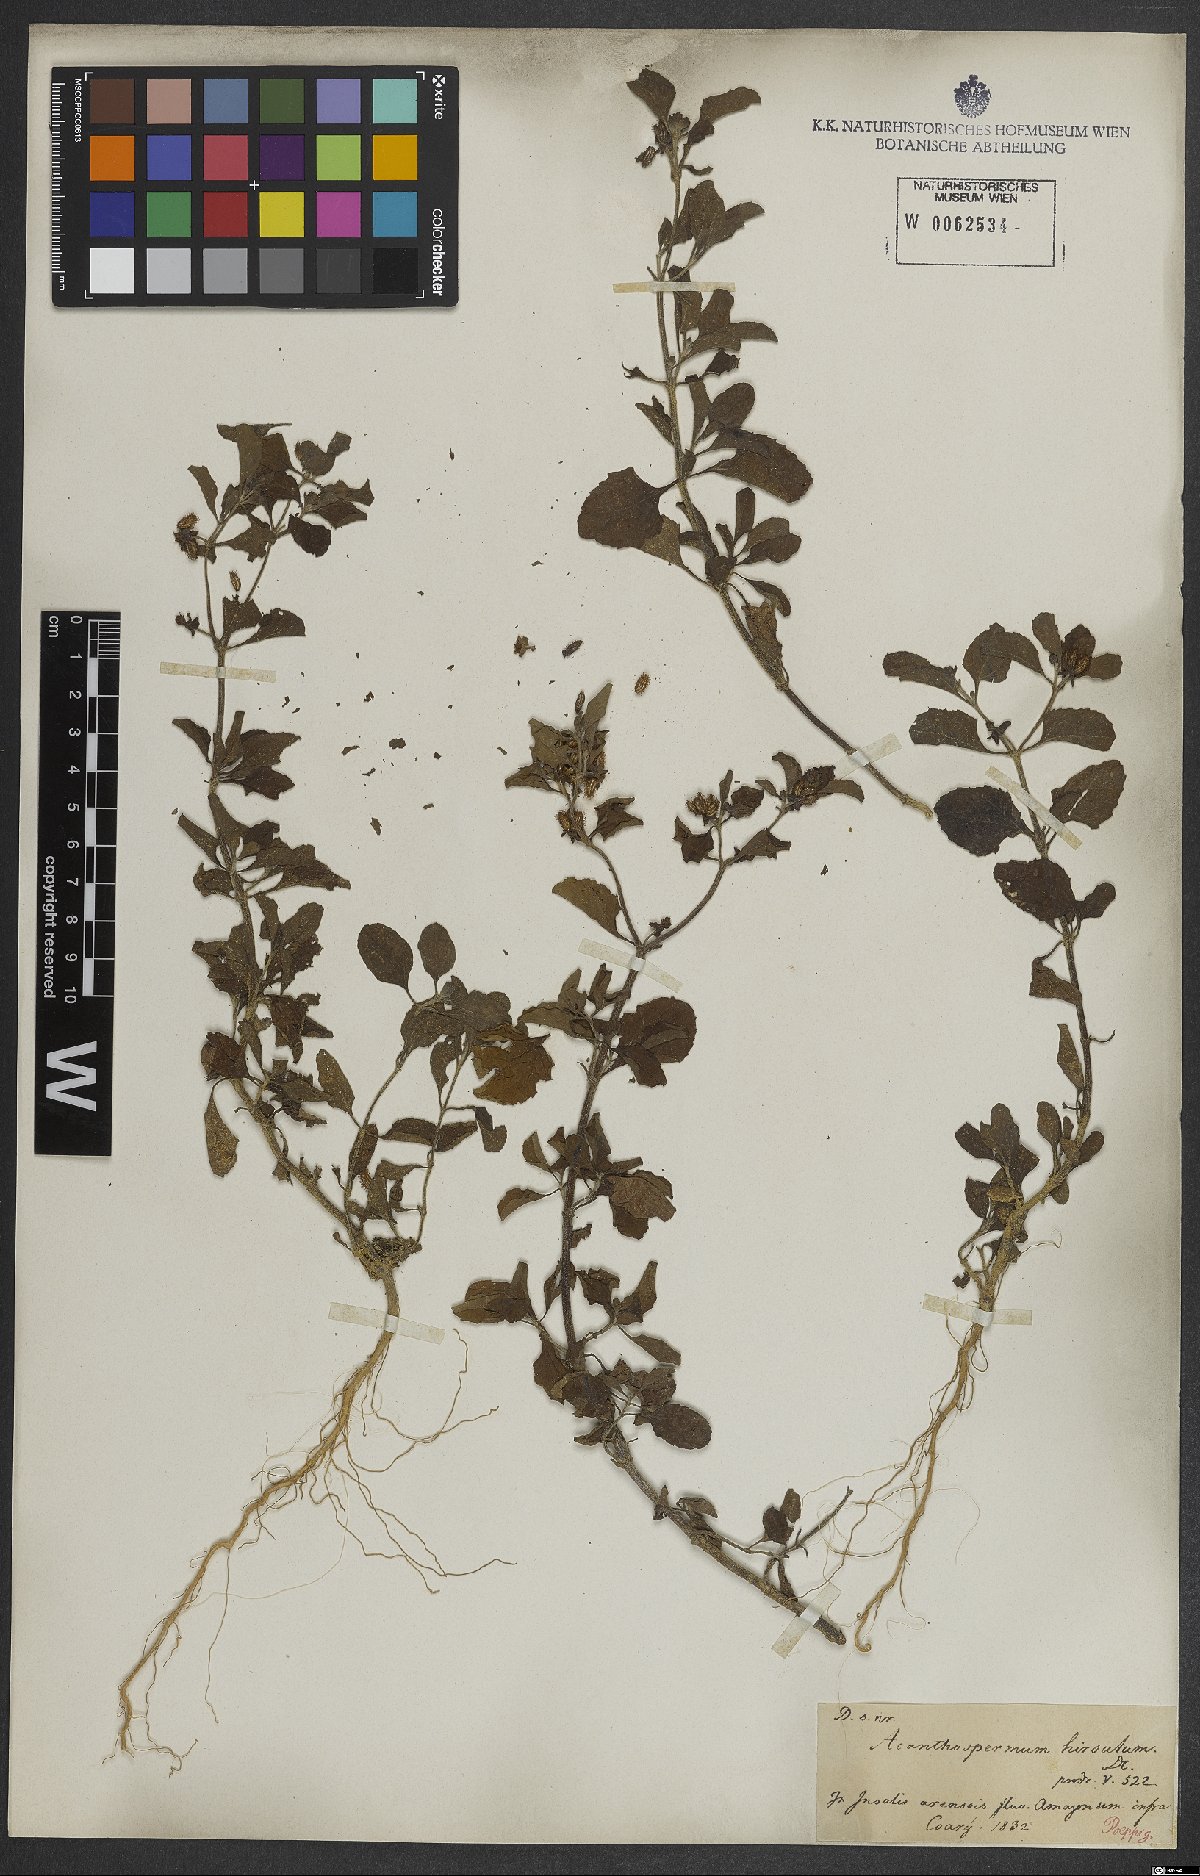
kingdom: Plantae
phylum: Tracheophyta
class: Magnoliopsida
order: Asterales
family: Asteraceae
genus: Acanthospermum
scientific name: Acanthospermum australe
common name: Paraguayan starbur
